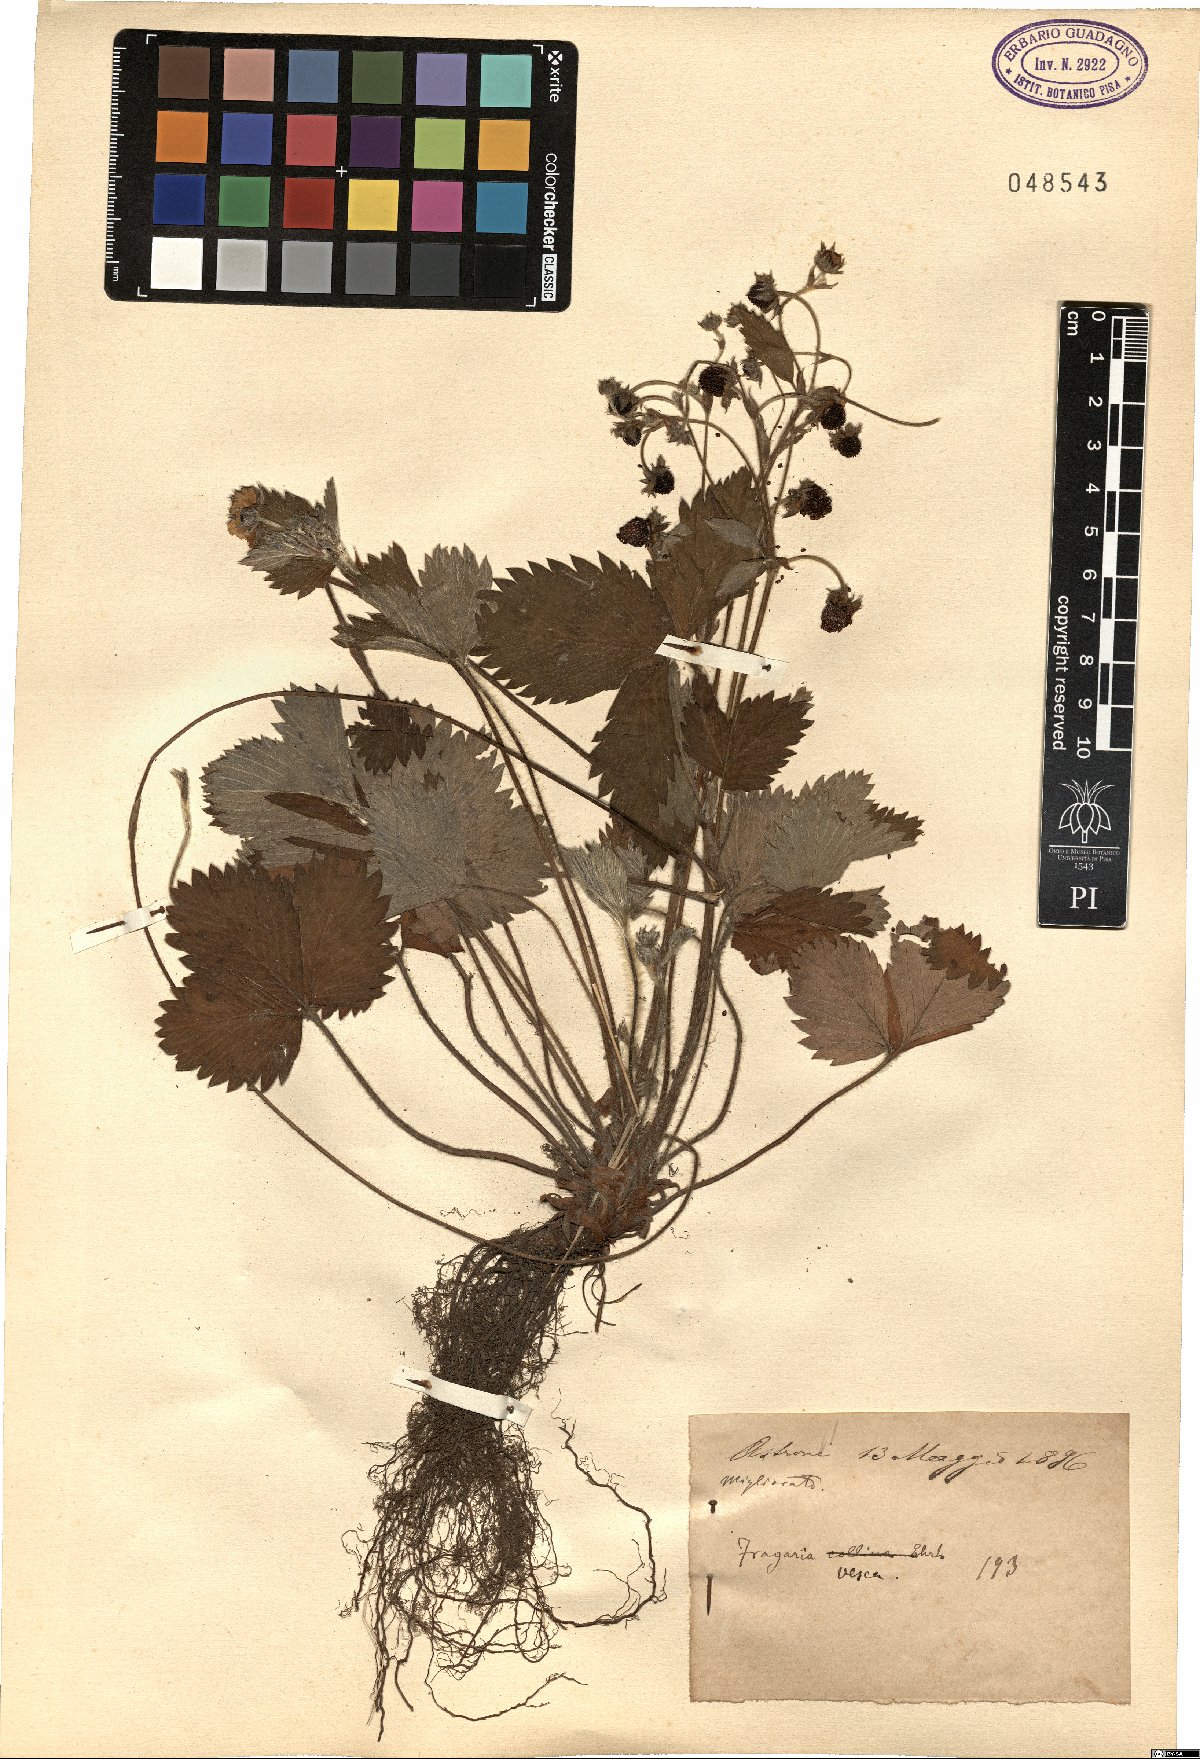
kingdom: Plantae
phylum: Tracheophyta
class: Magnoliopsida
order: Rosales
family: Rosaceae
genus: Fragaria
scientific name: Fragaria vesca
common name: Wild strawberry
